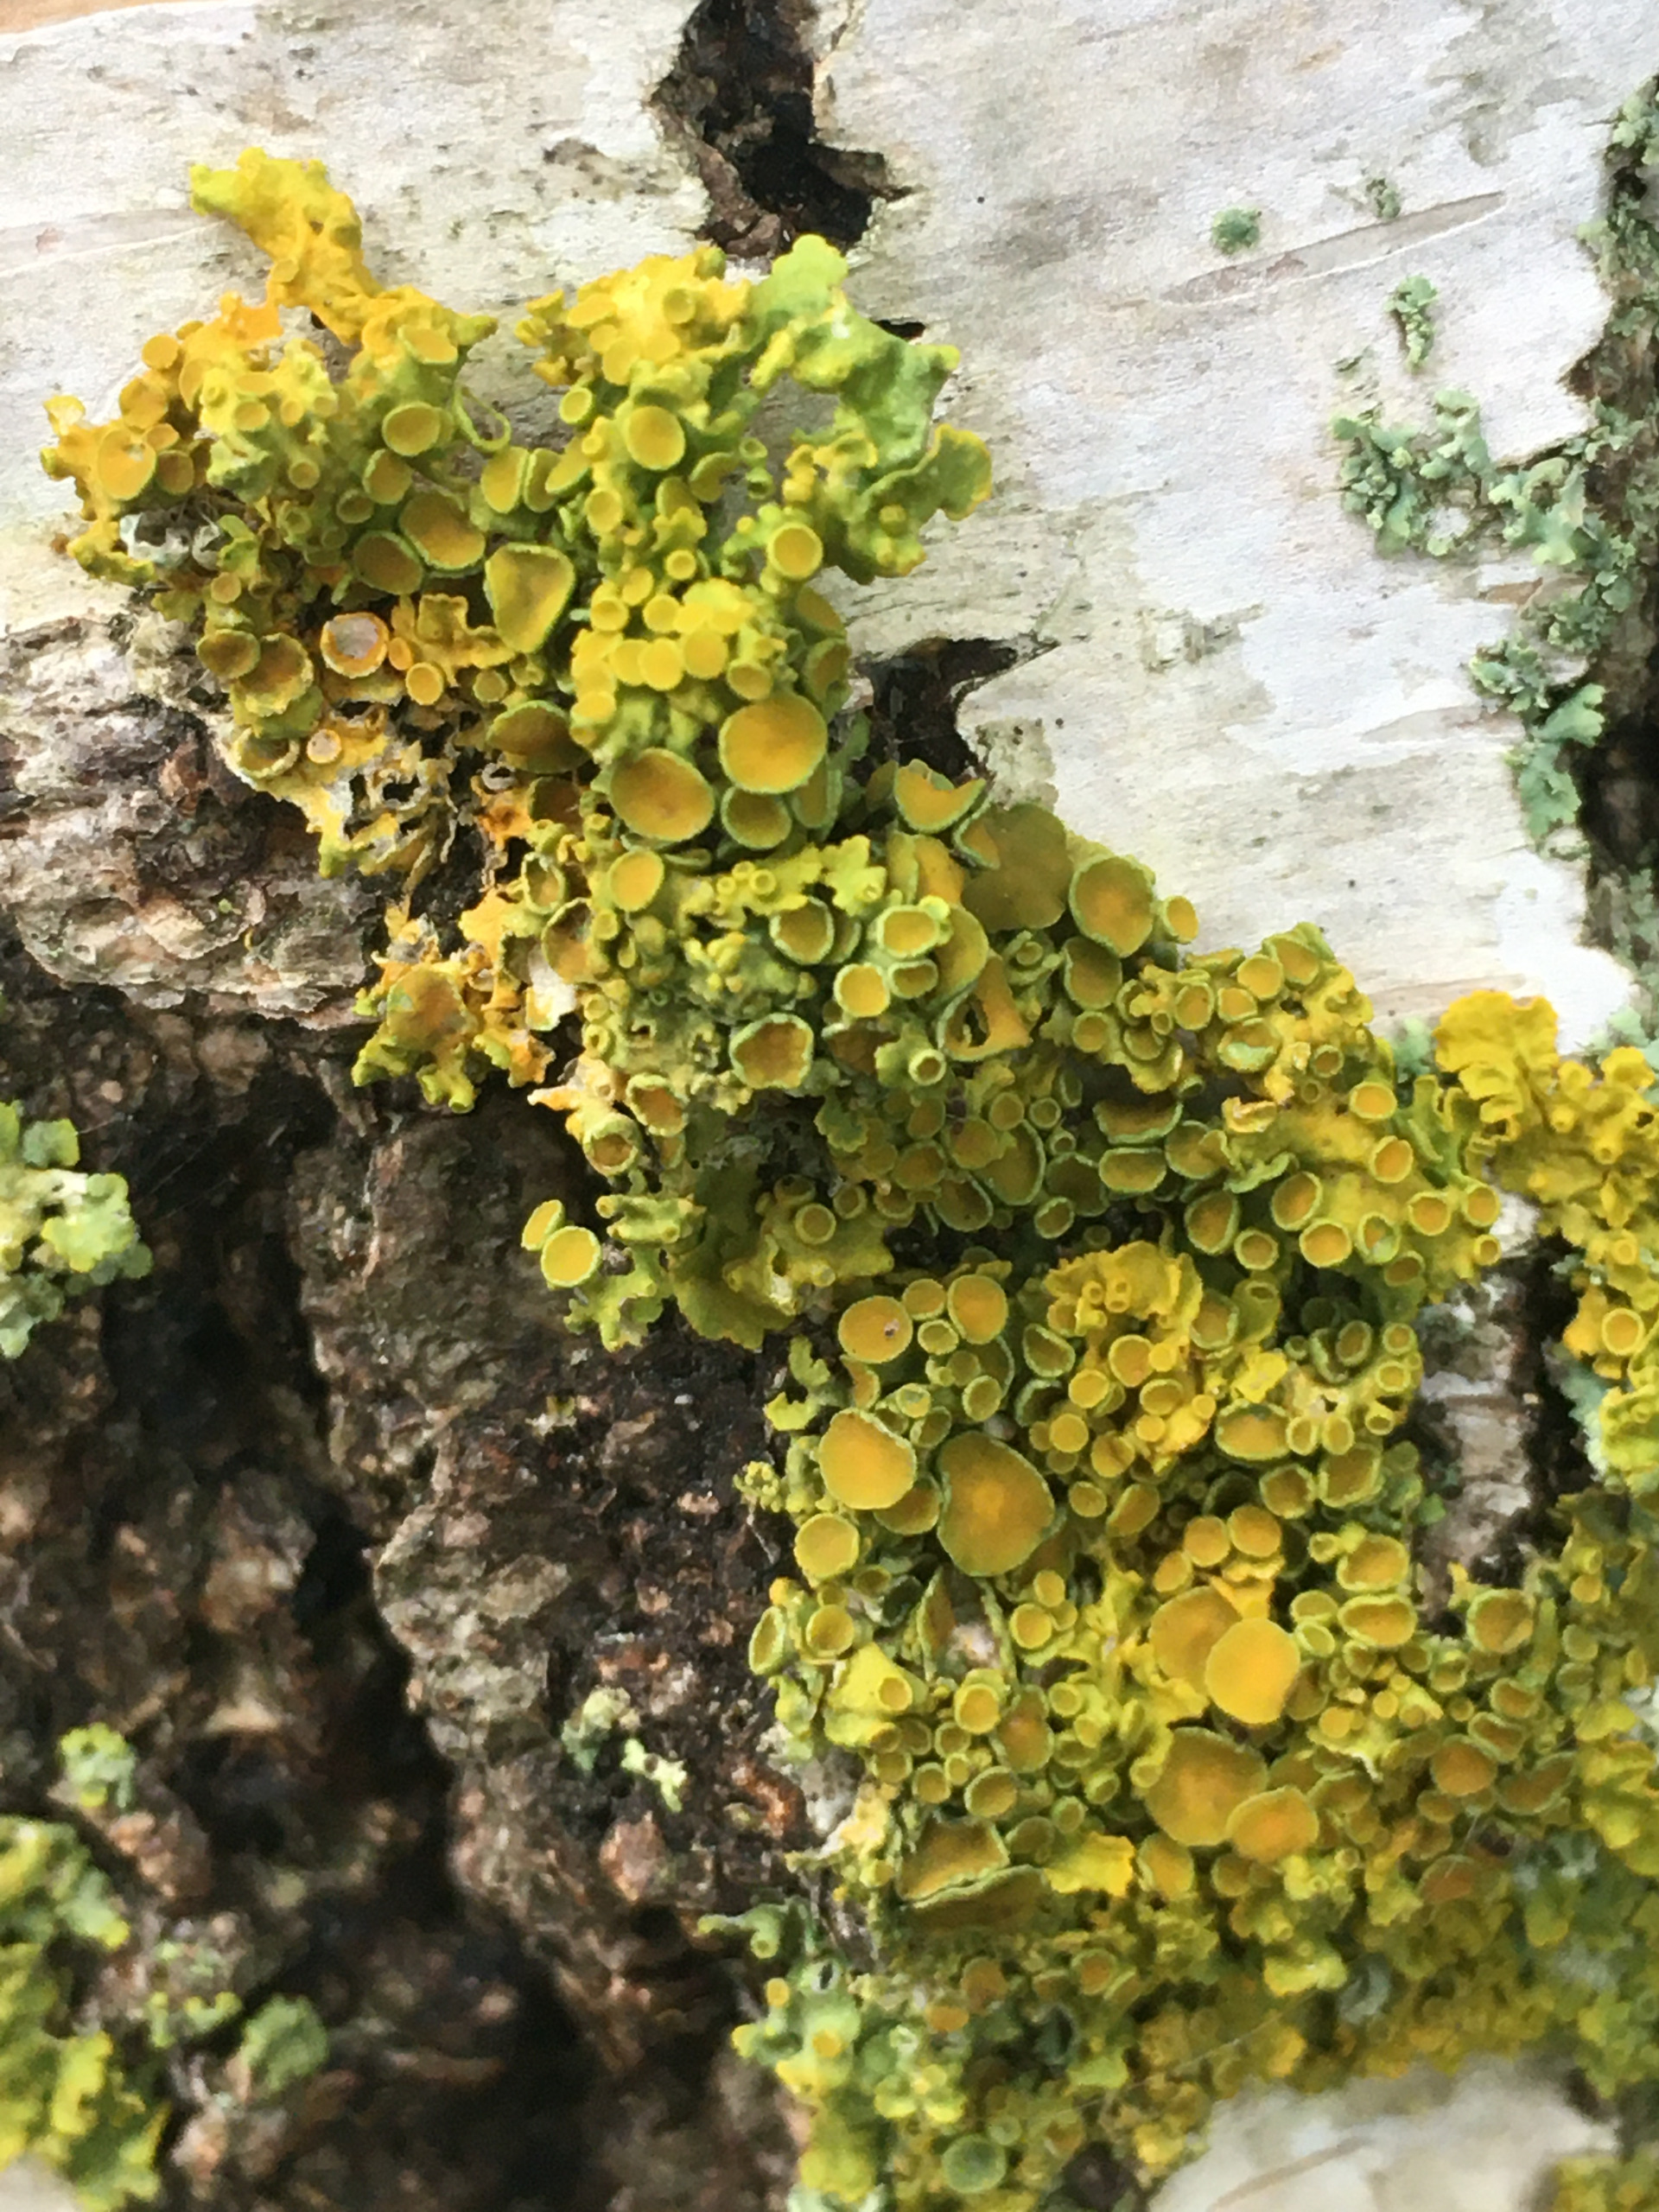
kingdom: Fungi
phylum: Ascomycota
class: Lecanoromycetes
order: Teloschistales
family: Teloschistaceae
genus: Xanthoria
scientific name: Xanthoria parietina
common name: Almindelig væggelav
